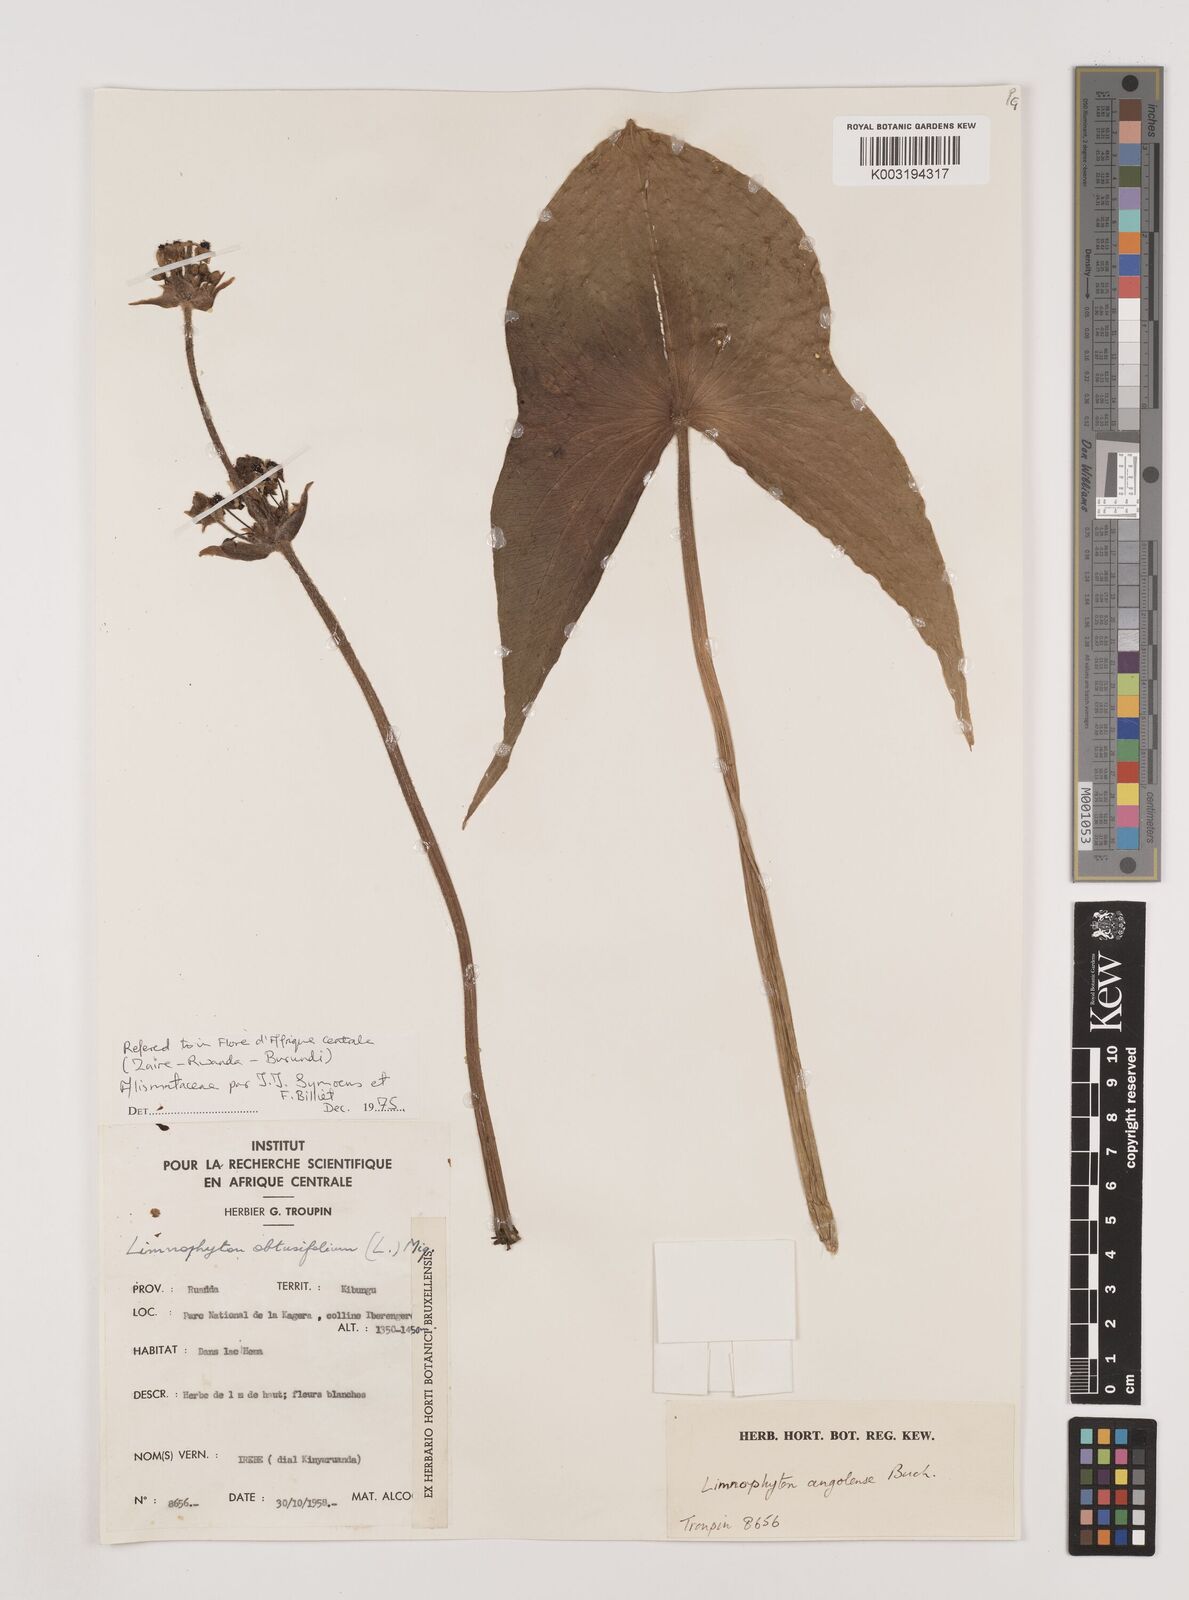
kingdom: Plantae
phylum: Tracheophyta
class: Liliopsida
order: Alismatales
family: Alismataceae
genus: Limnophyton
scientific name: Limnophyton angolense
